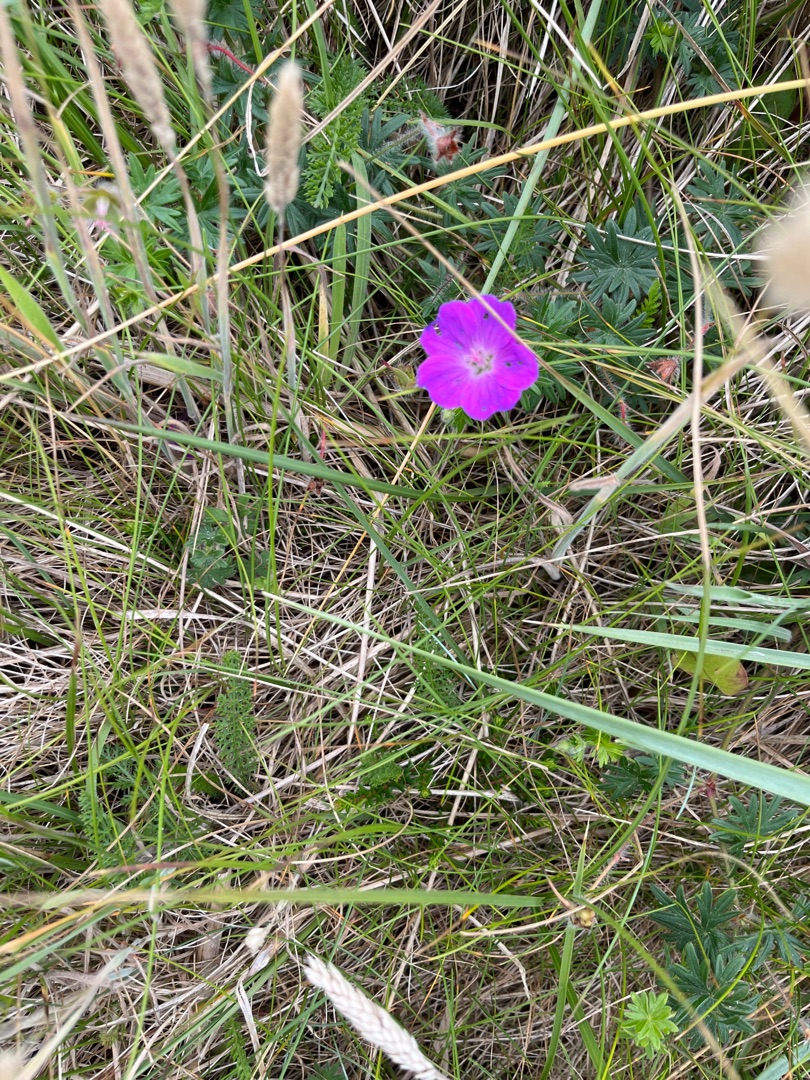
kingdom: Plantae
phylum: Tracheophyta
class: Magnoliopsida
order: Geraniales
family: Geraniaceae
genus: Geranium
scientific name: Geranium sanguineum
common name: Blodrød storkenæb
